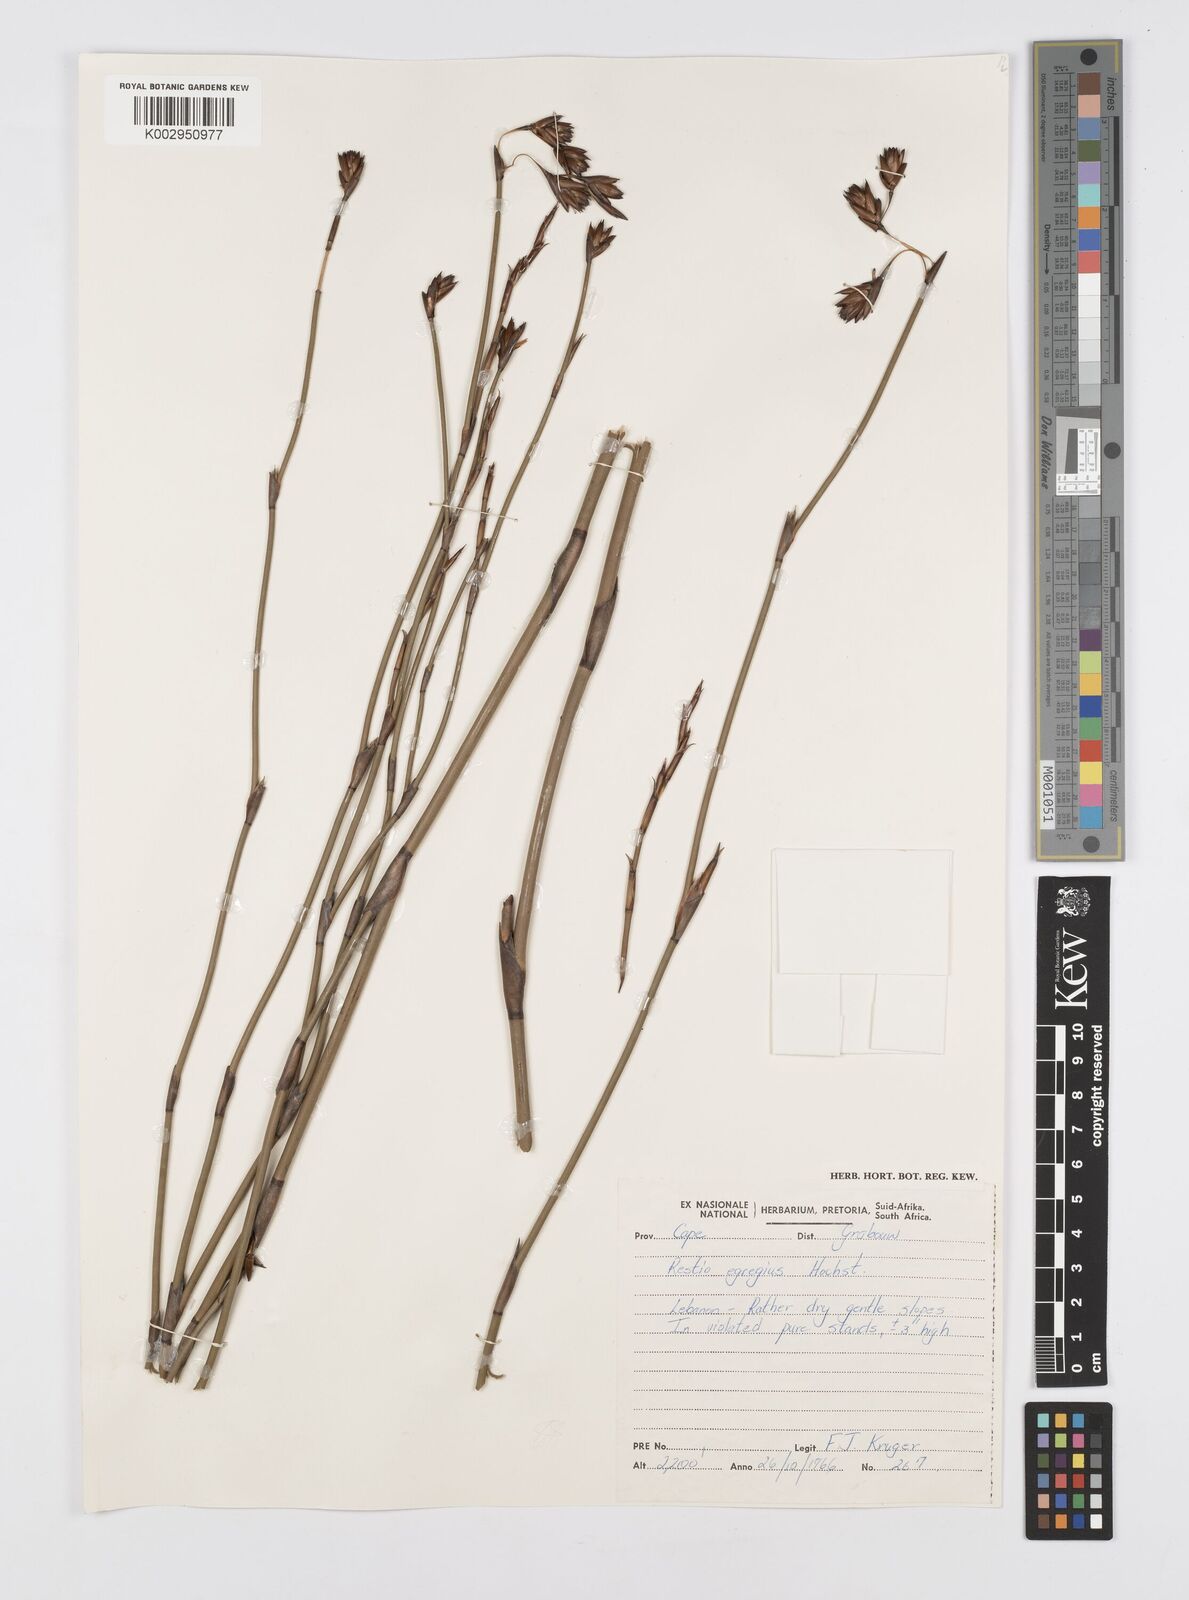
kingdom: Plantae
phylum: Tracheophyta
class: Liliopsida
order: Poales
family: Restionaceae
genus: Restio
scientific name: Restio egregius
